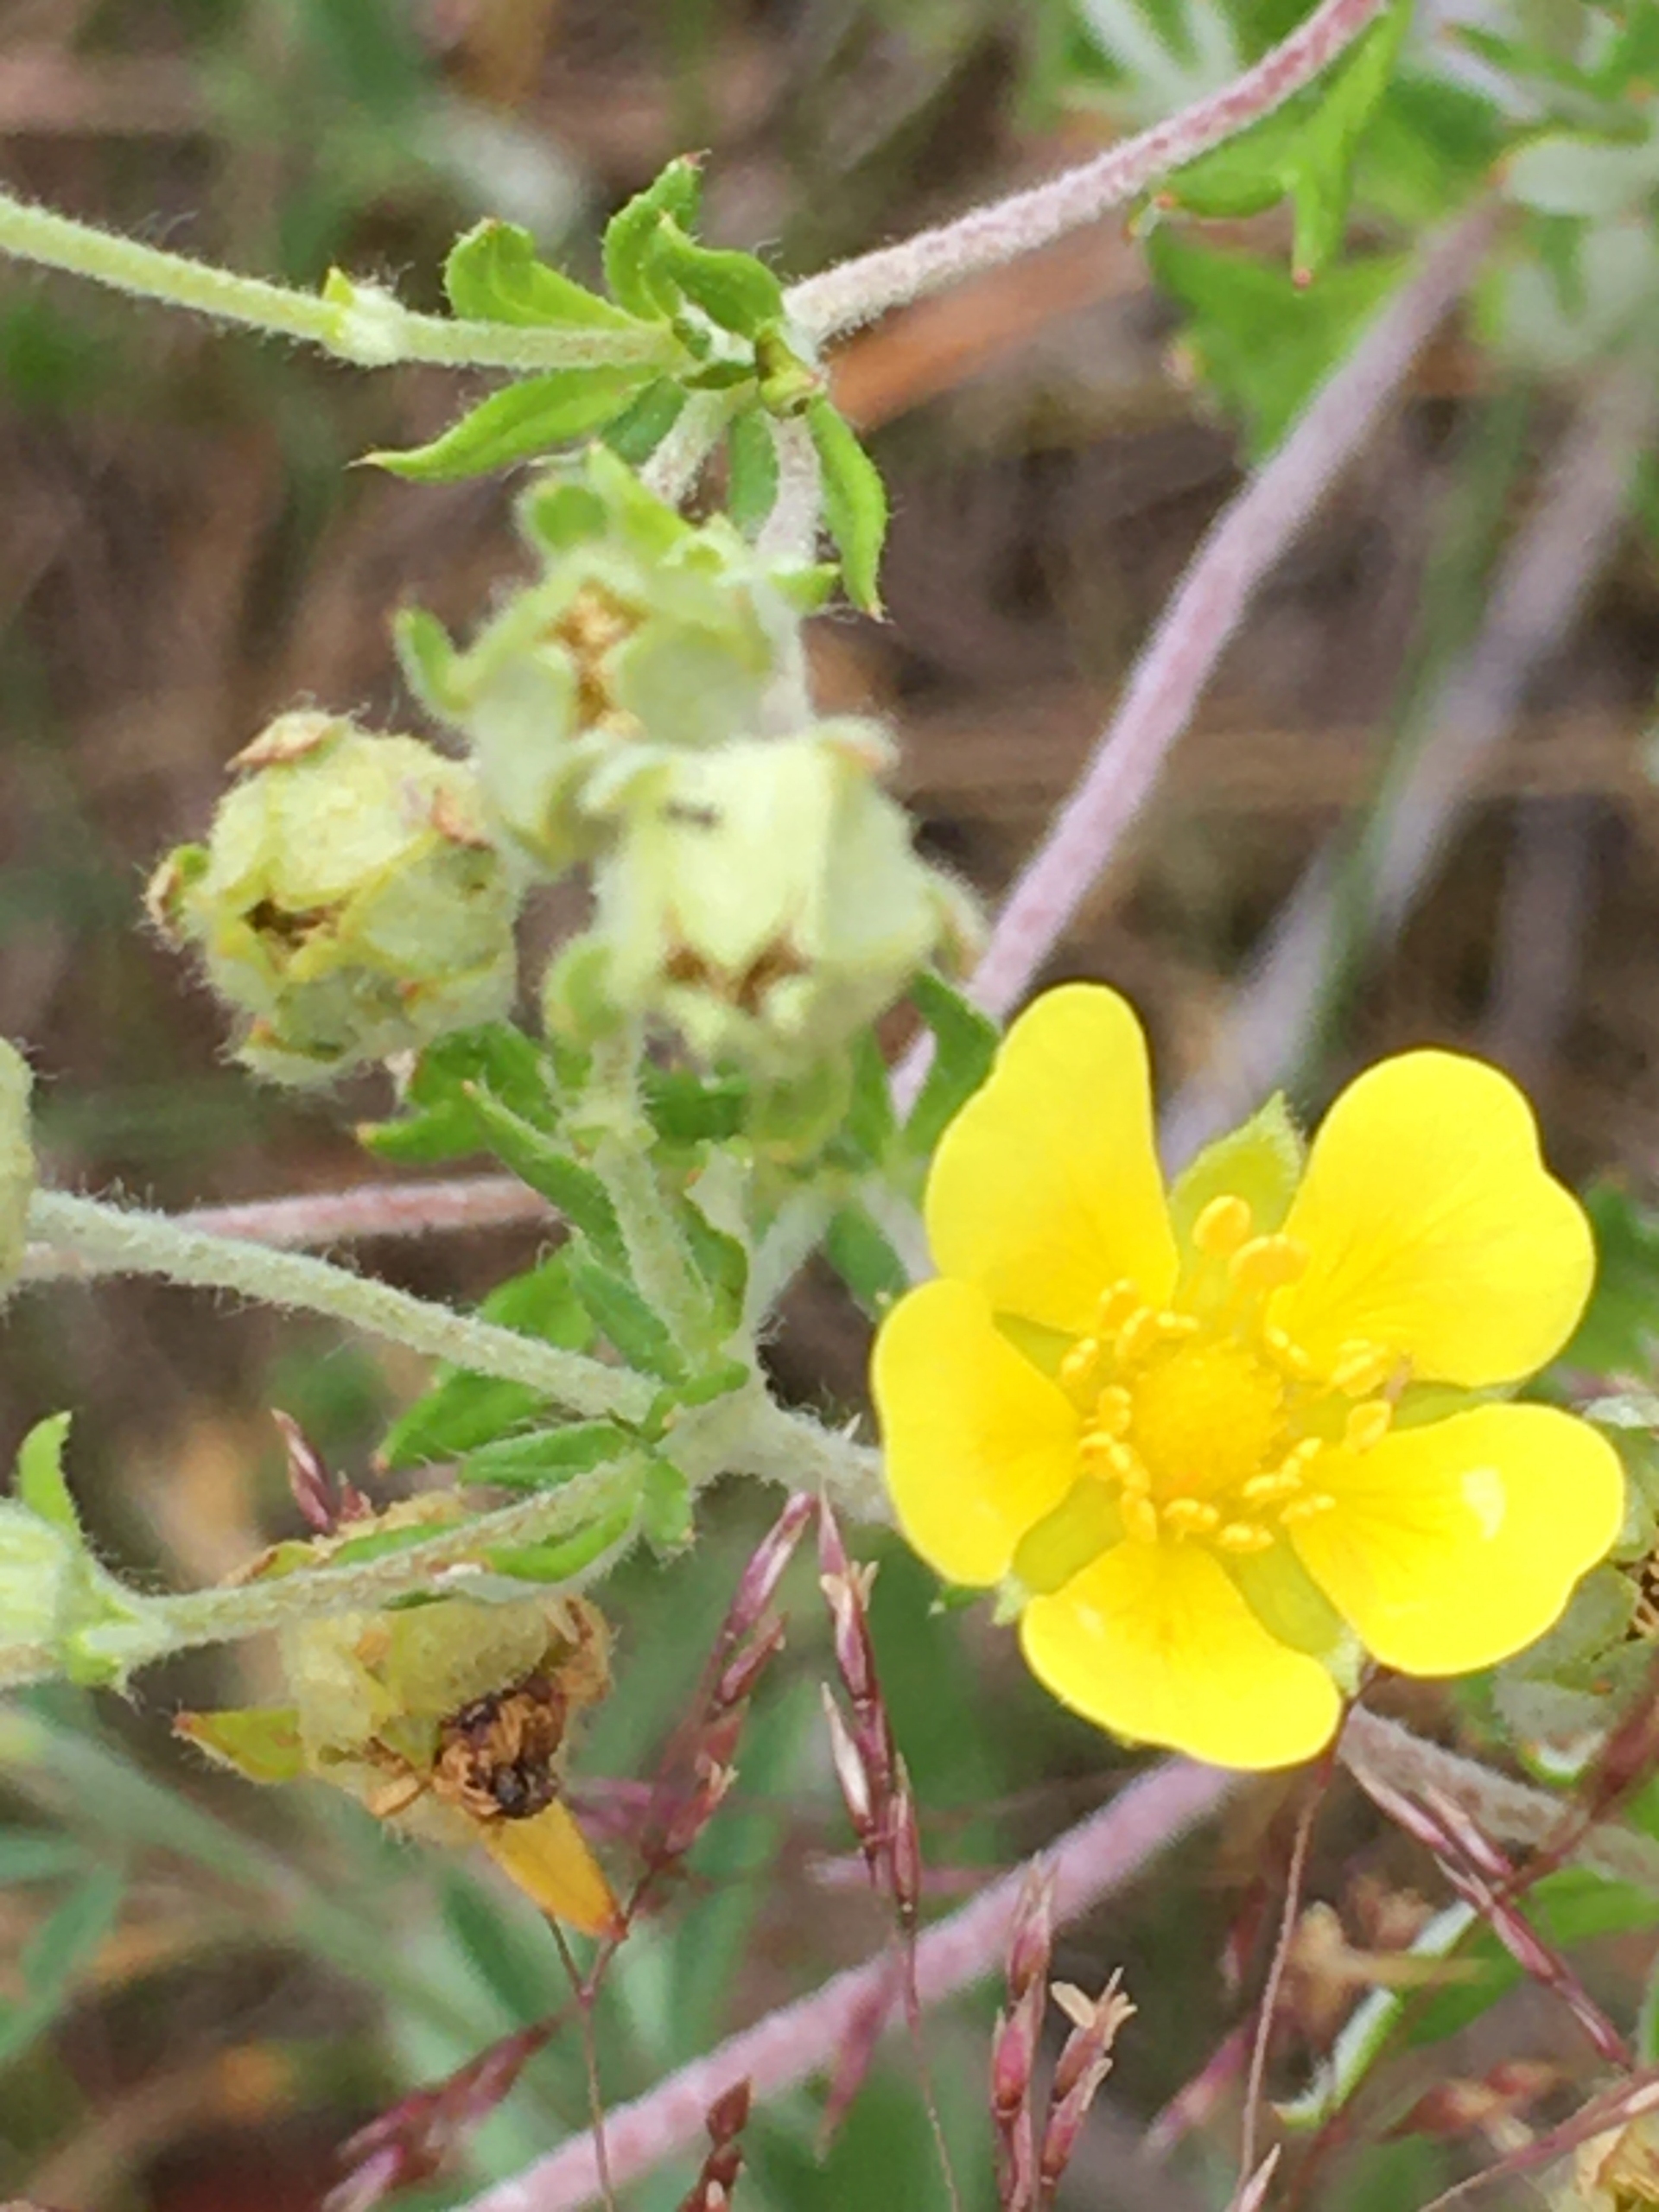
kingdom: Plantae
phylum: Tracheophyta
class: Magnoliopsida
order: Rosales
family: Rosaceae
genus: Potentilla
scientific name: Potentilla argentea
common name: Sølv-potentil
